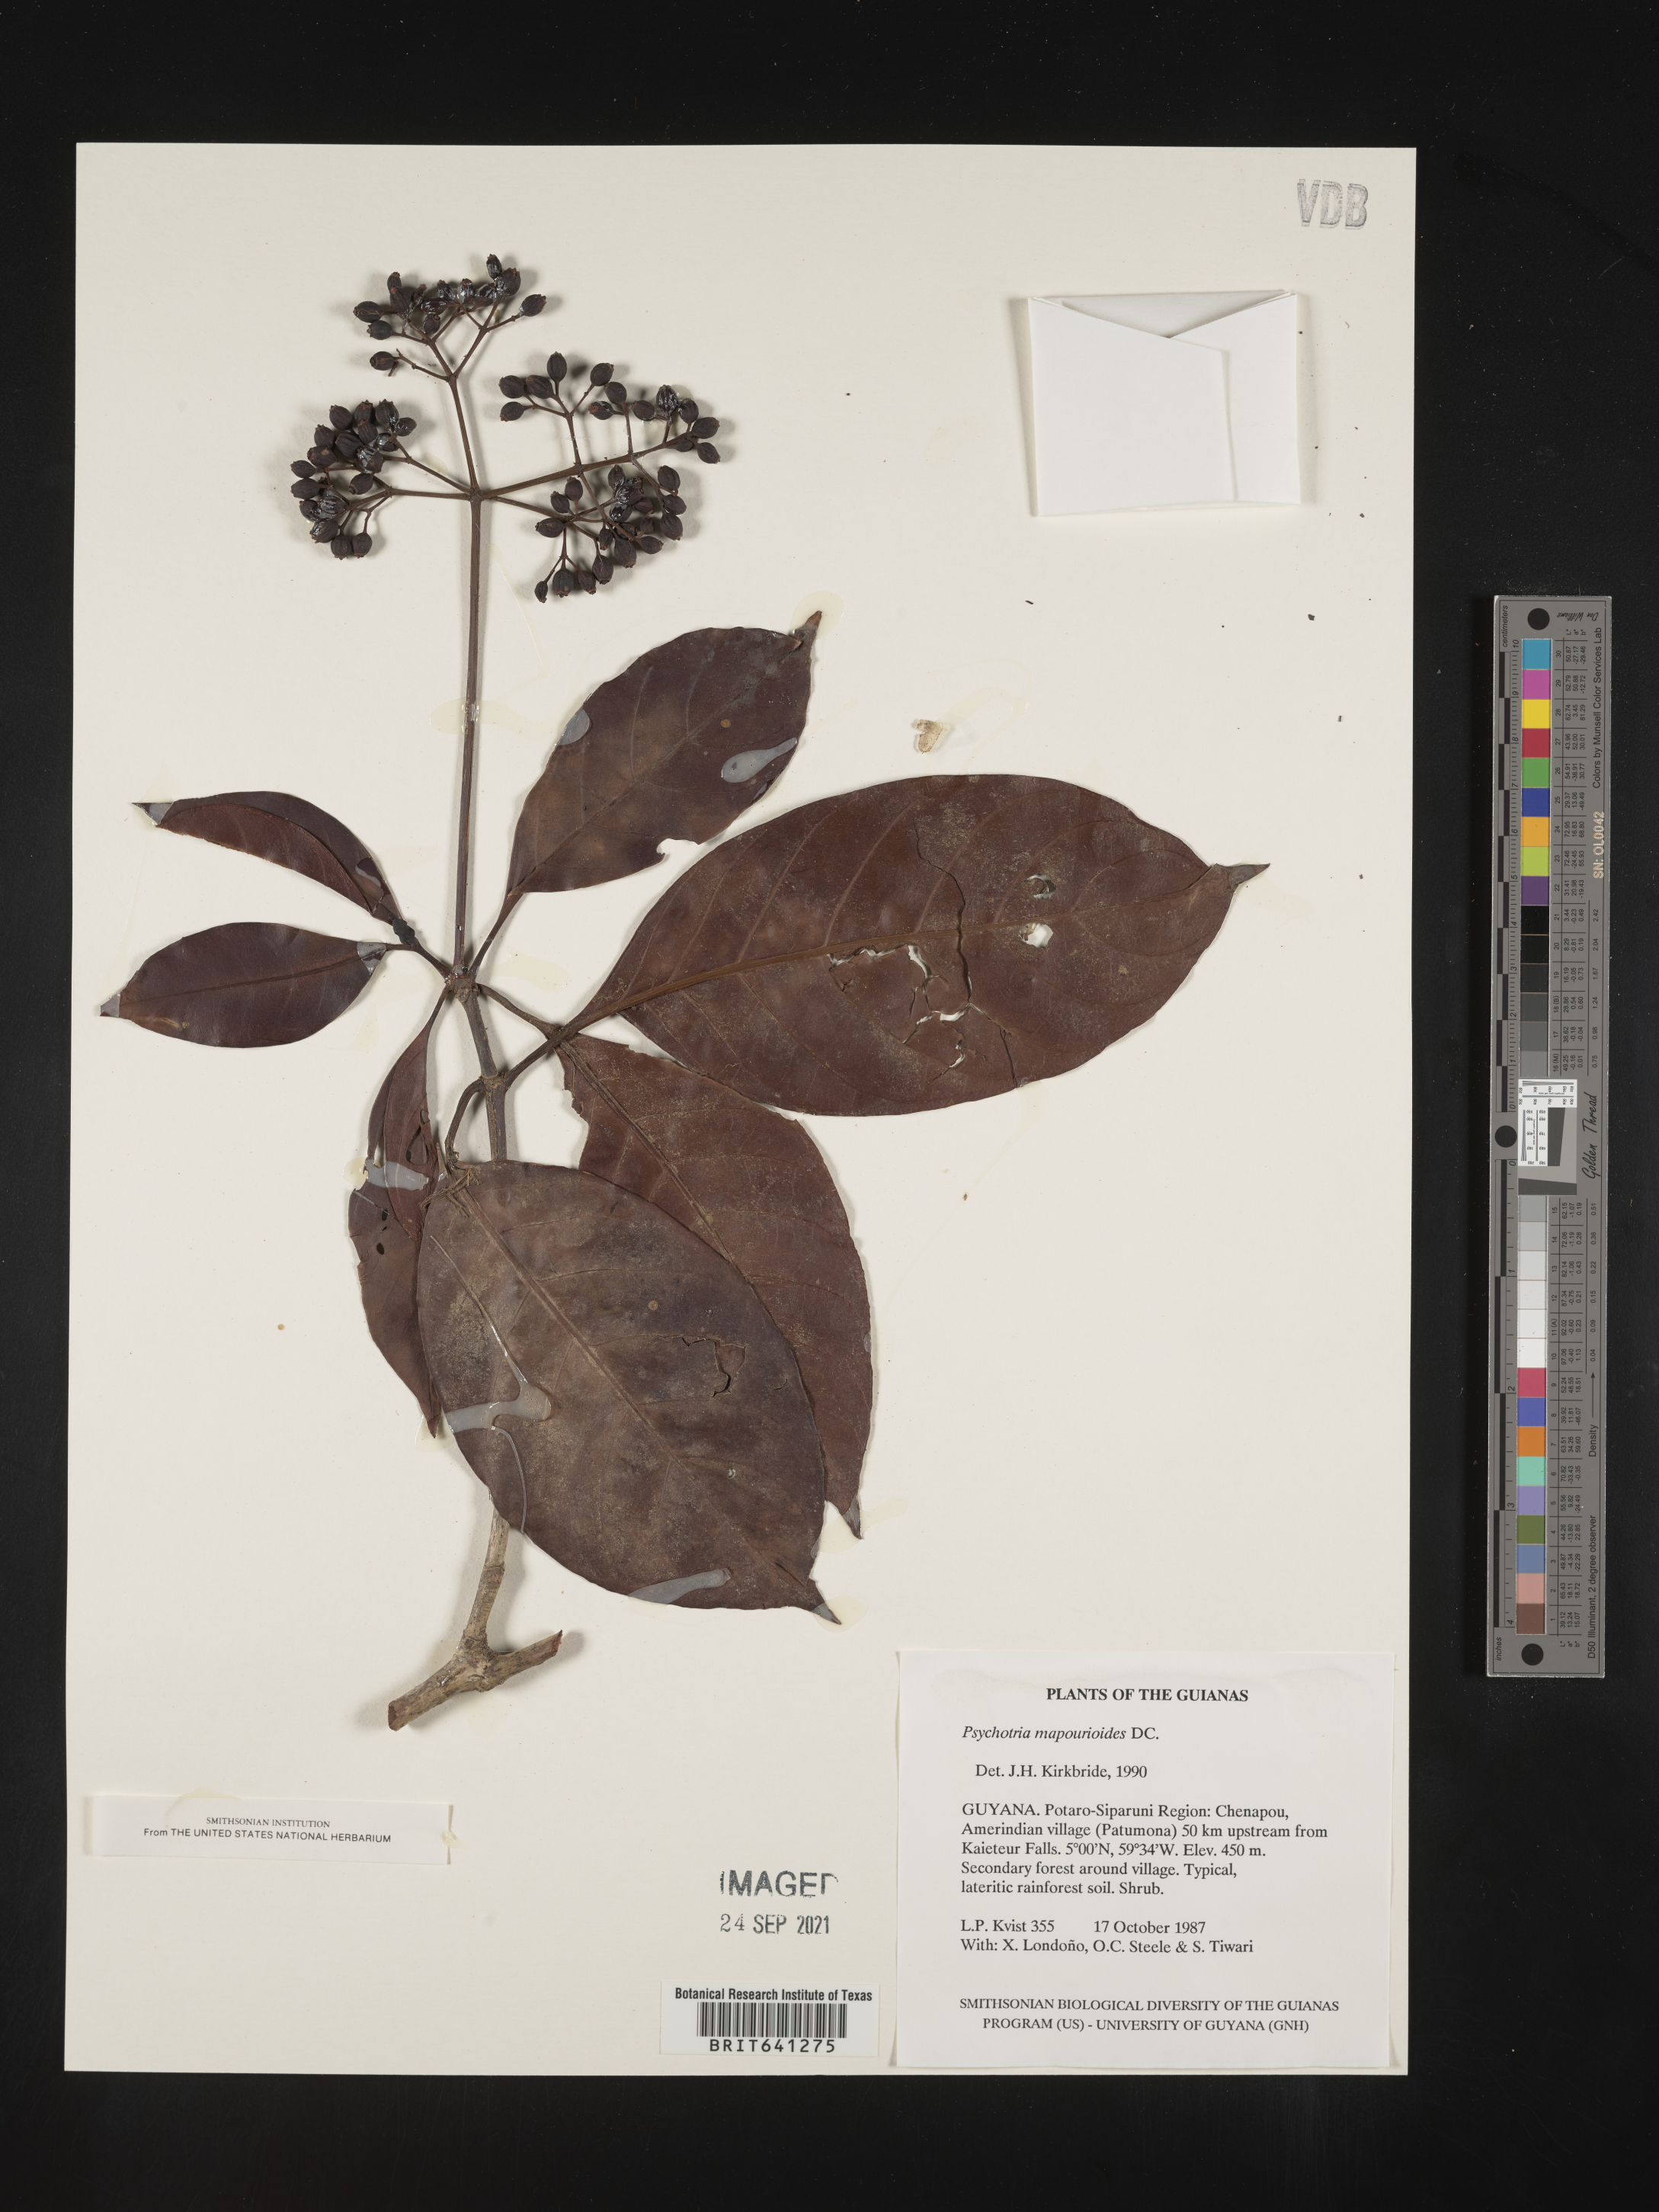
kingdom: Plantae
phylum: Tracheophyta
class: Magnoliopsida
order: Gentianales
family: Rubiaceae
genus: Psychotria
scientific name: Psychotria
